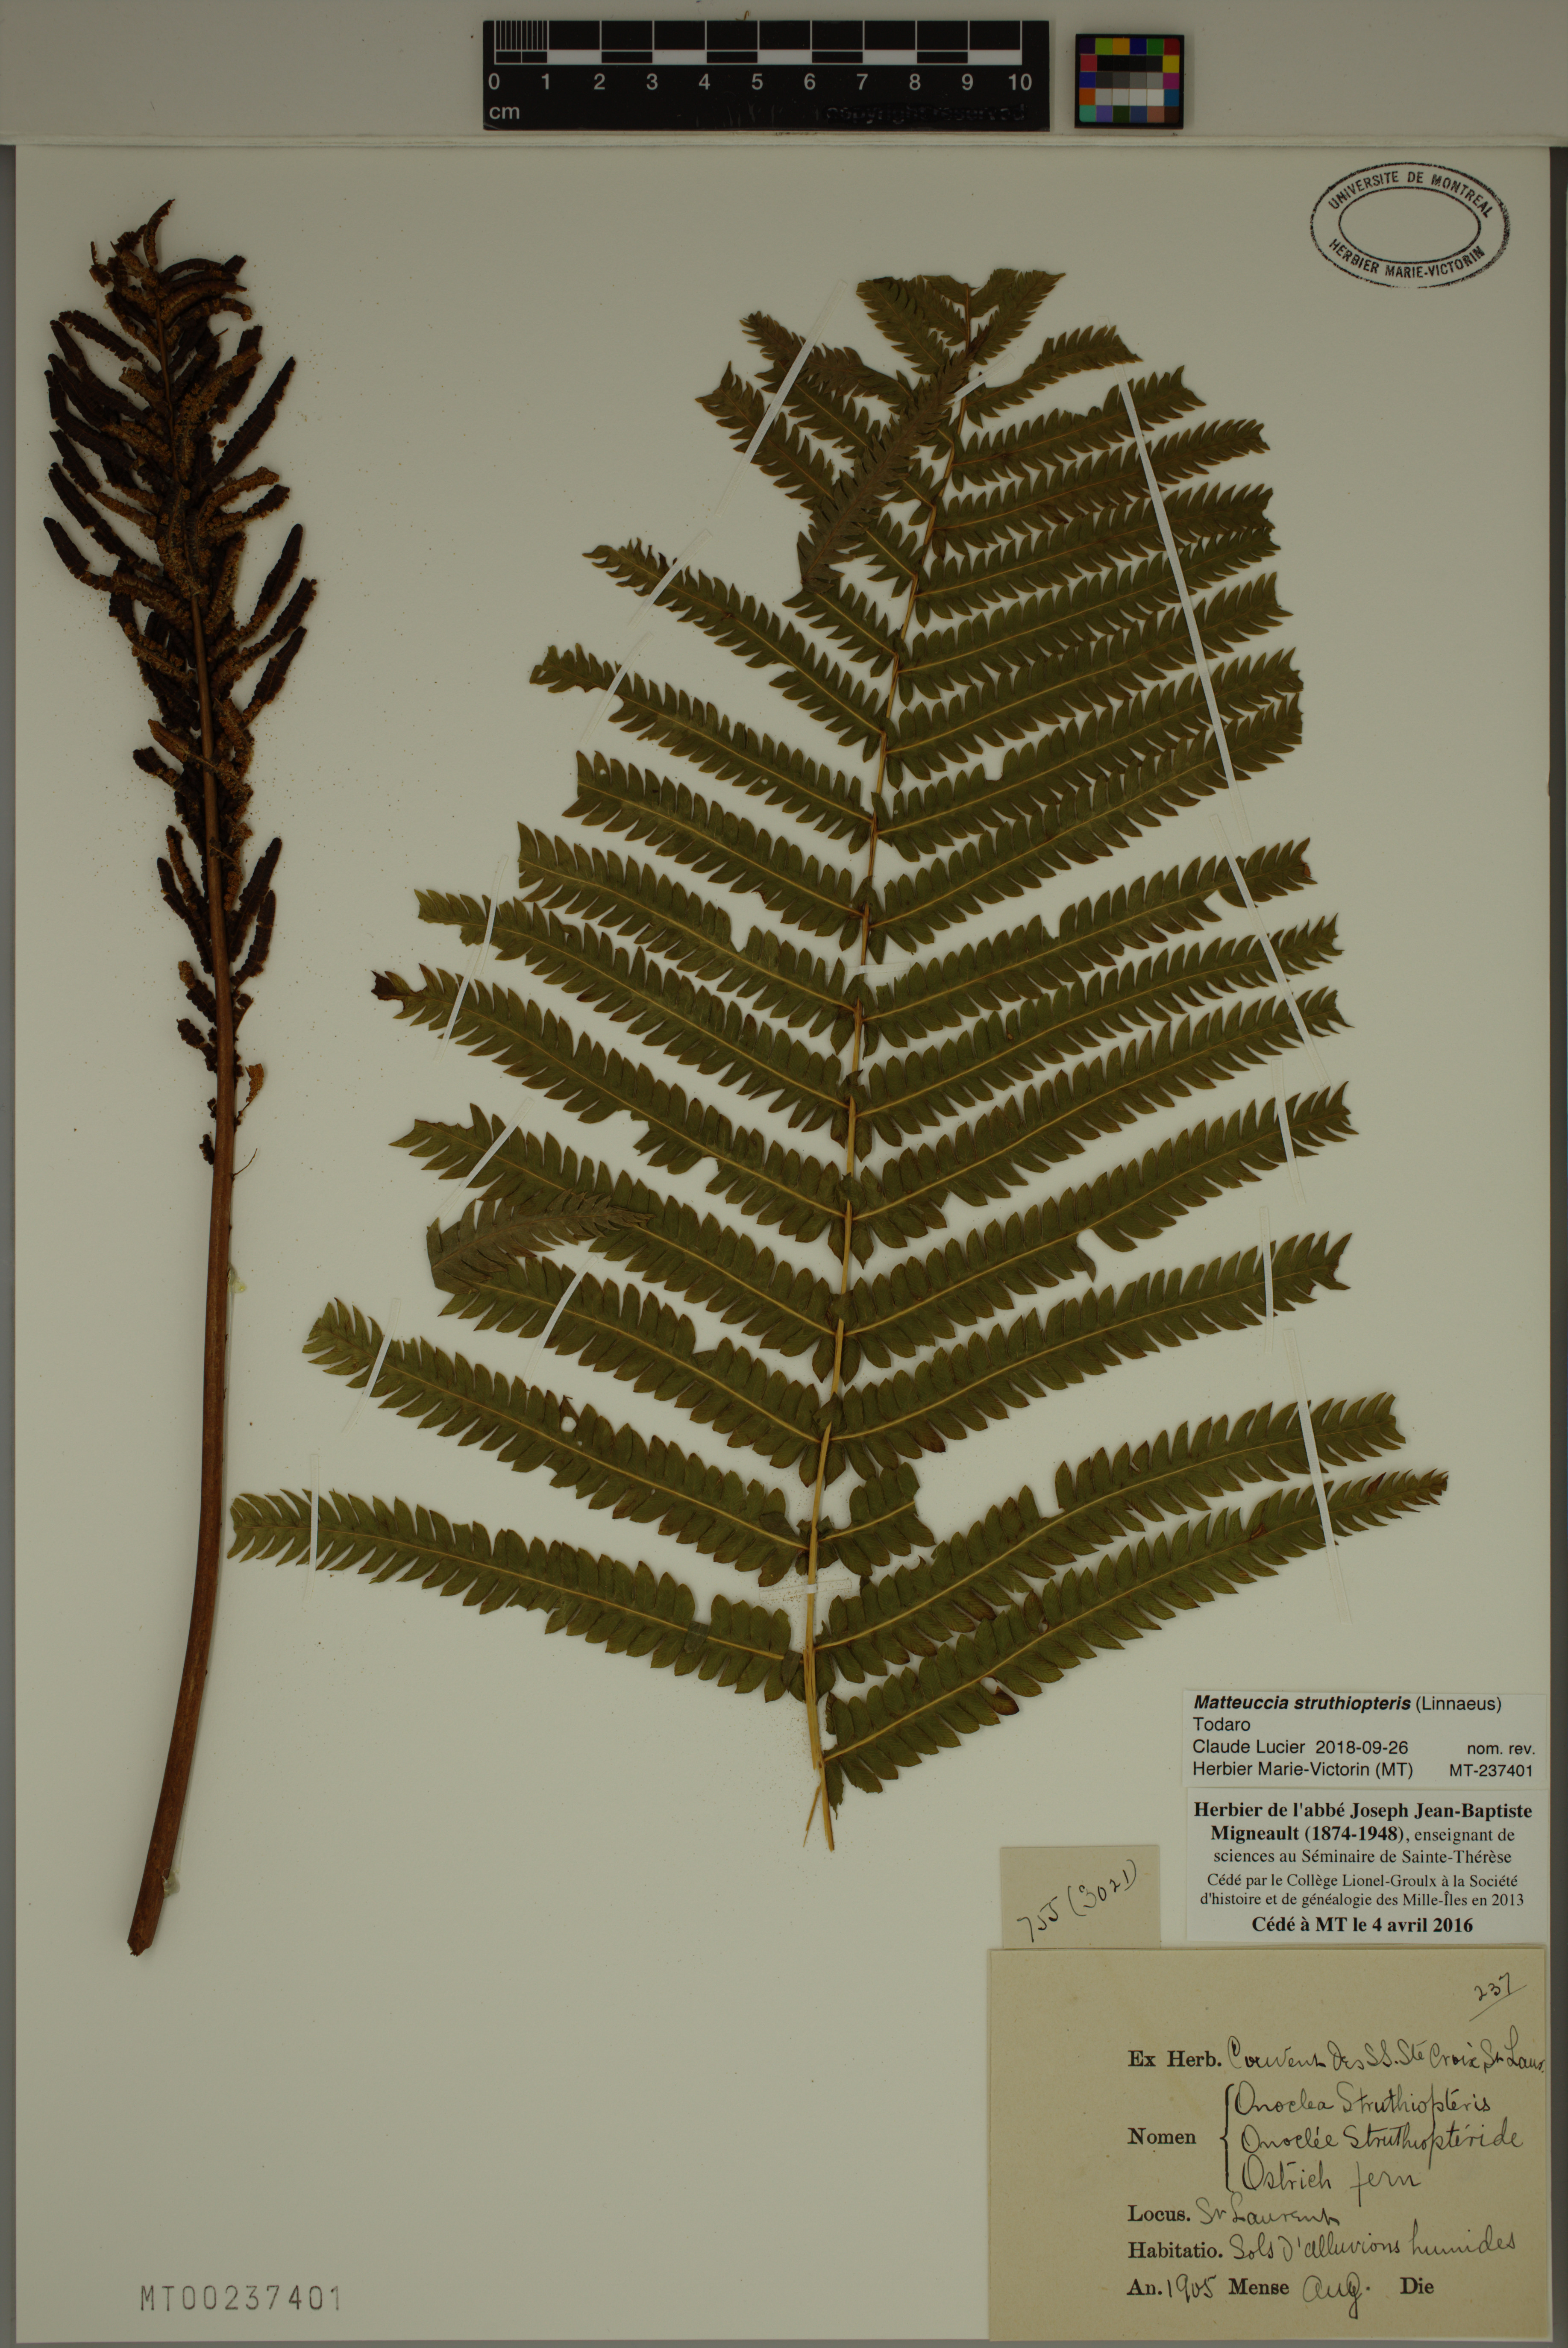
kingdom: Plantae
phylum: Tracheophyta
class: Polypodiopsida
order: Polypodiales
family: Onocleaceae
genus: Matteuccia
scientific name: Matteuccia struthiopteris
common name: Ostrich fern
